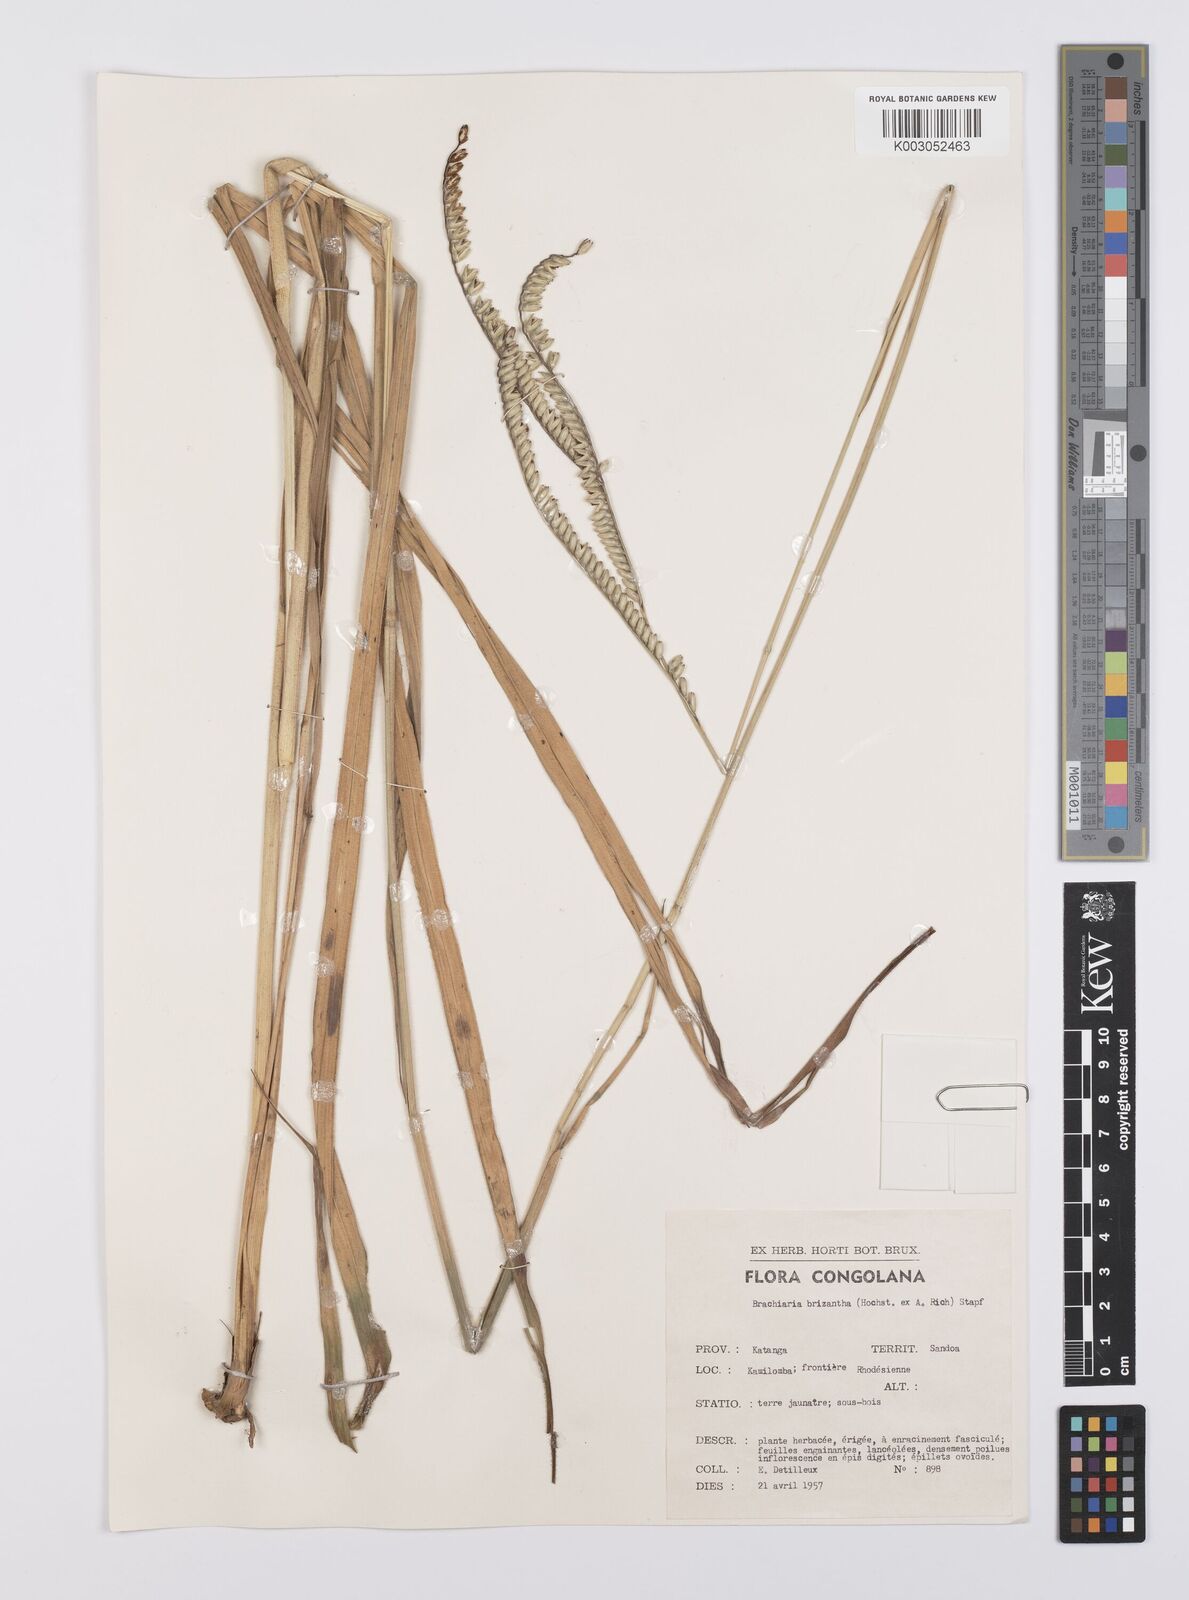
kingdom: Plantae
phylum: Tracheophyta
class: Liliopsida
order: Poales
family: Poaceae
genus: Urochloa
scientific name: Urochloa brizantha
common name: Palisade signalgrass
